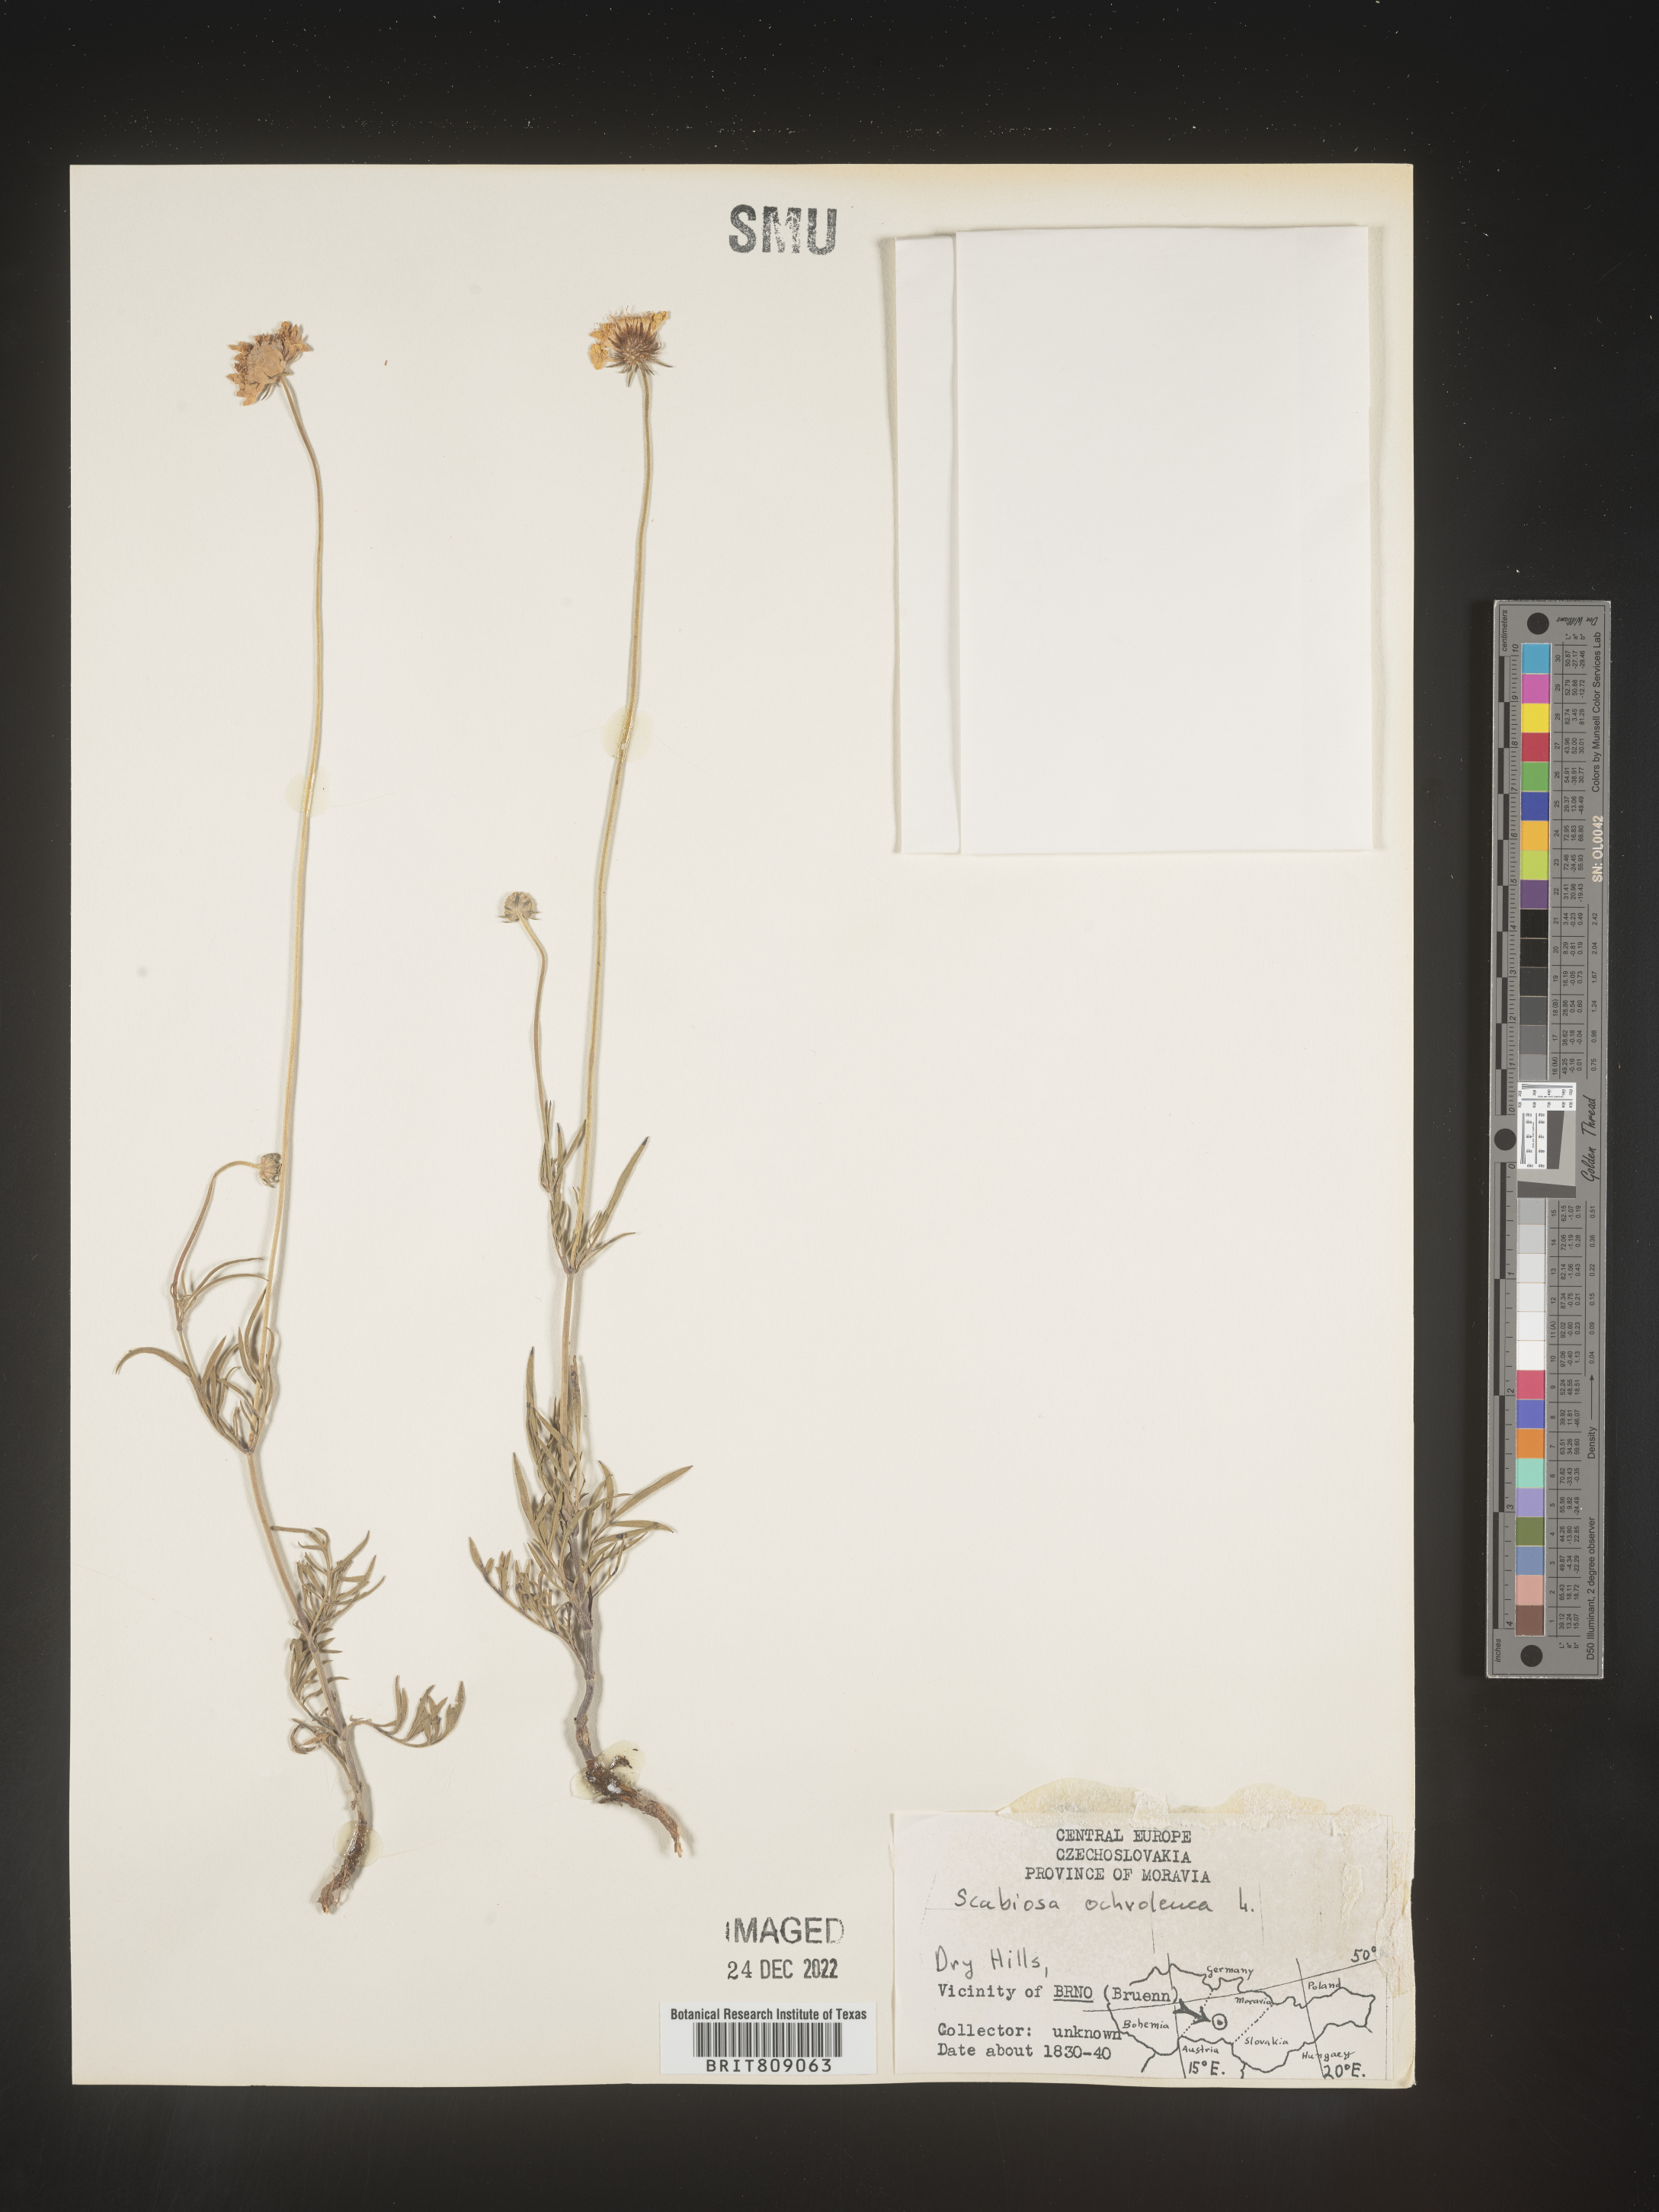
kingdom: Plantae
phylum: Tracheophyta
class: Magnoliopsida
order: Dipsacales
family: Caprifoliaceae
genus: Scabiosa
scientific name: Scabiosa
